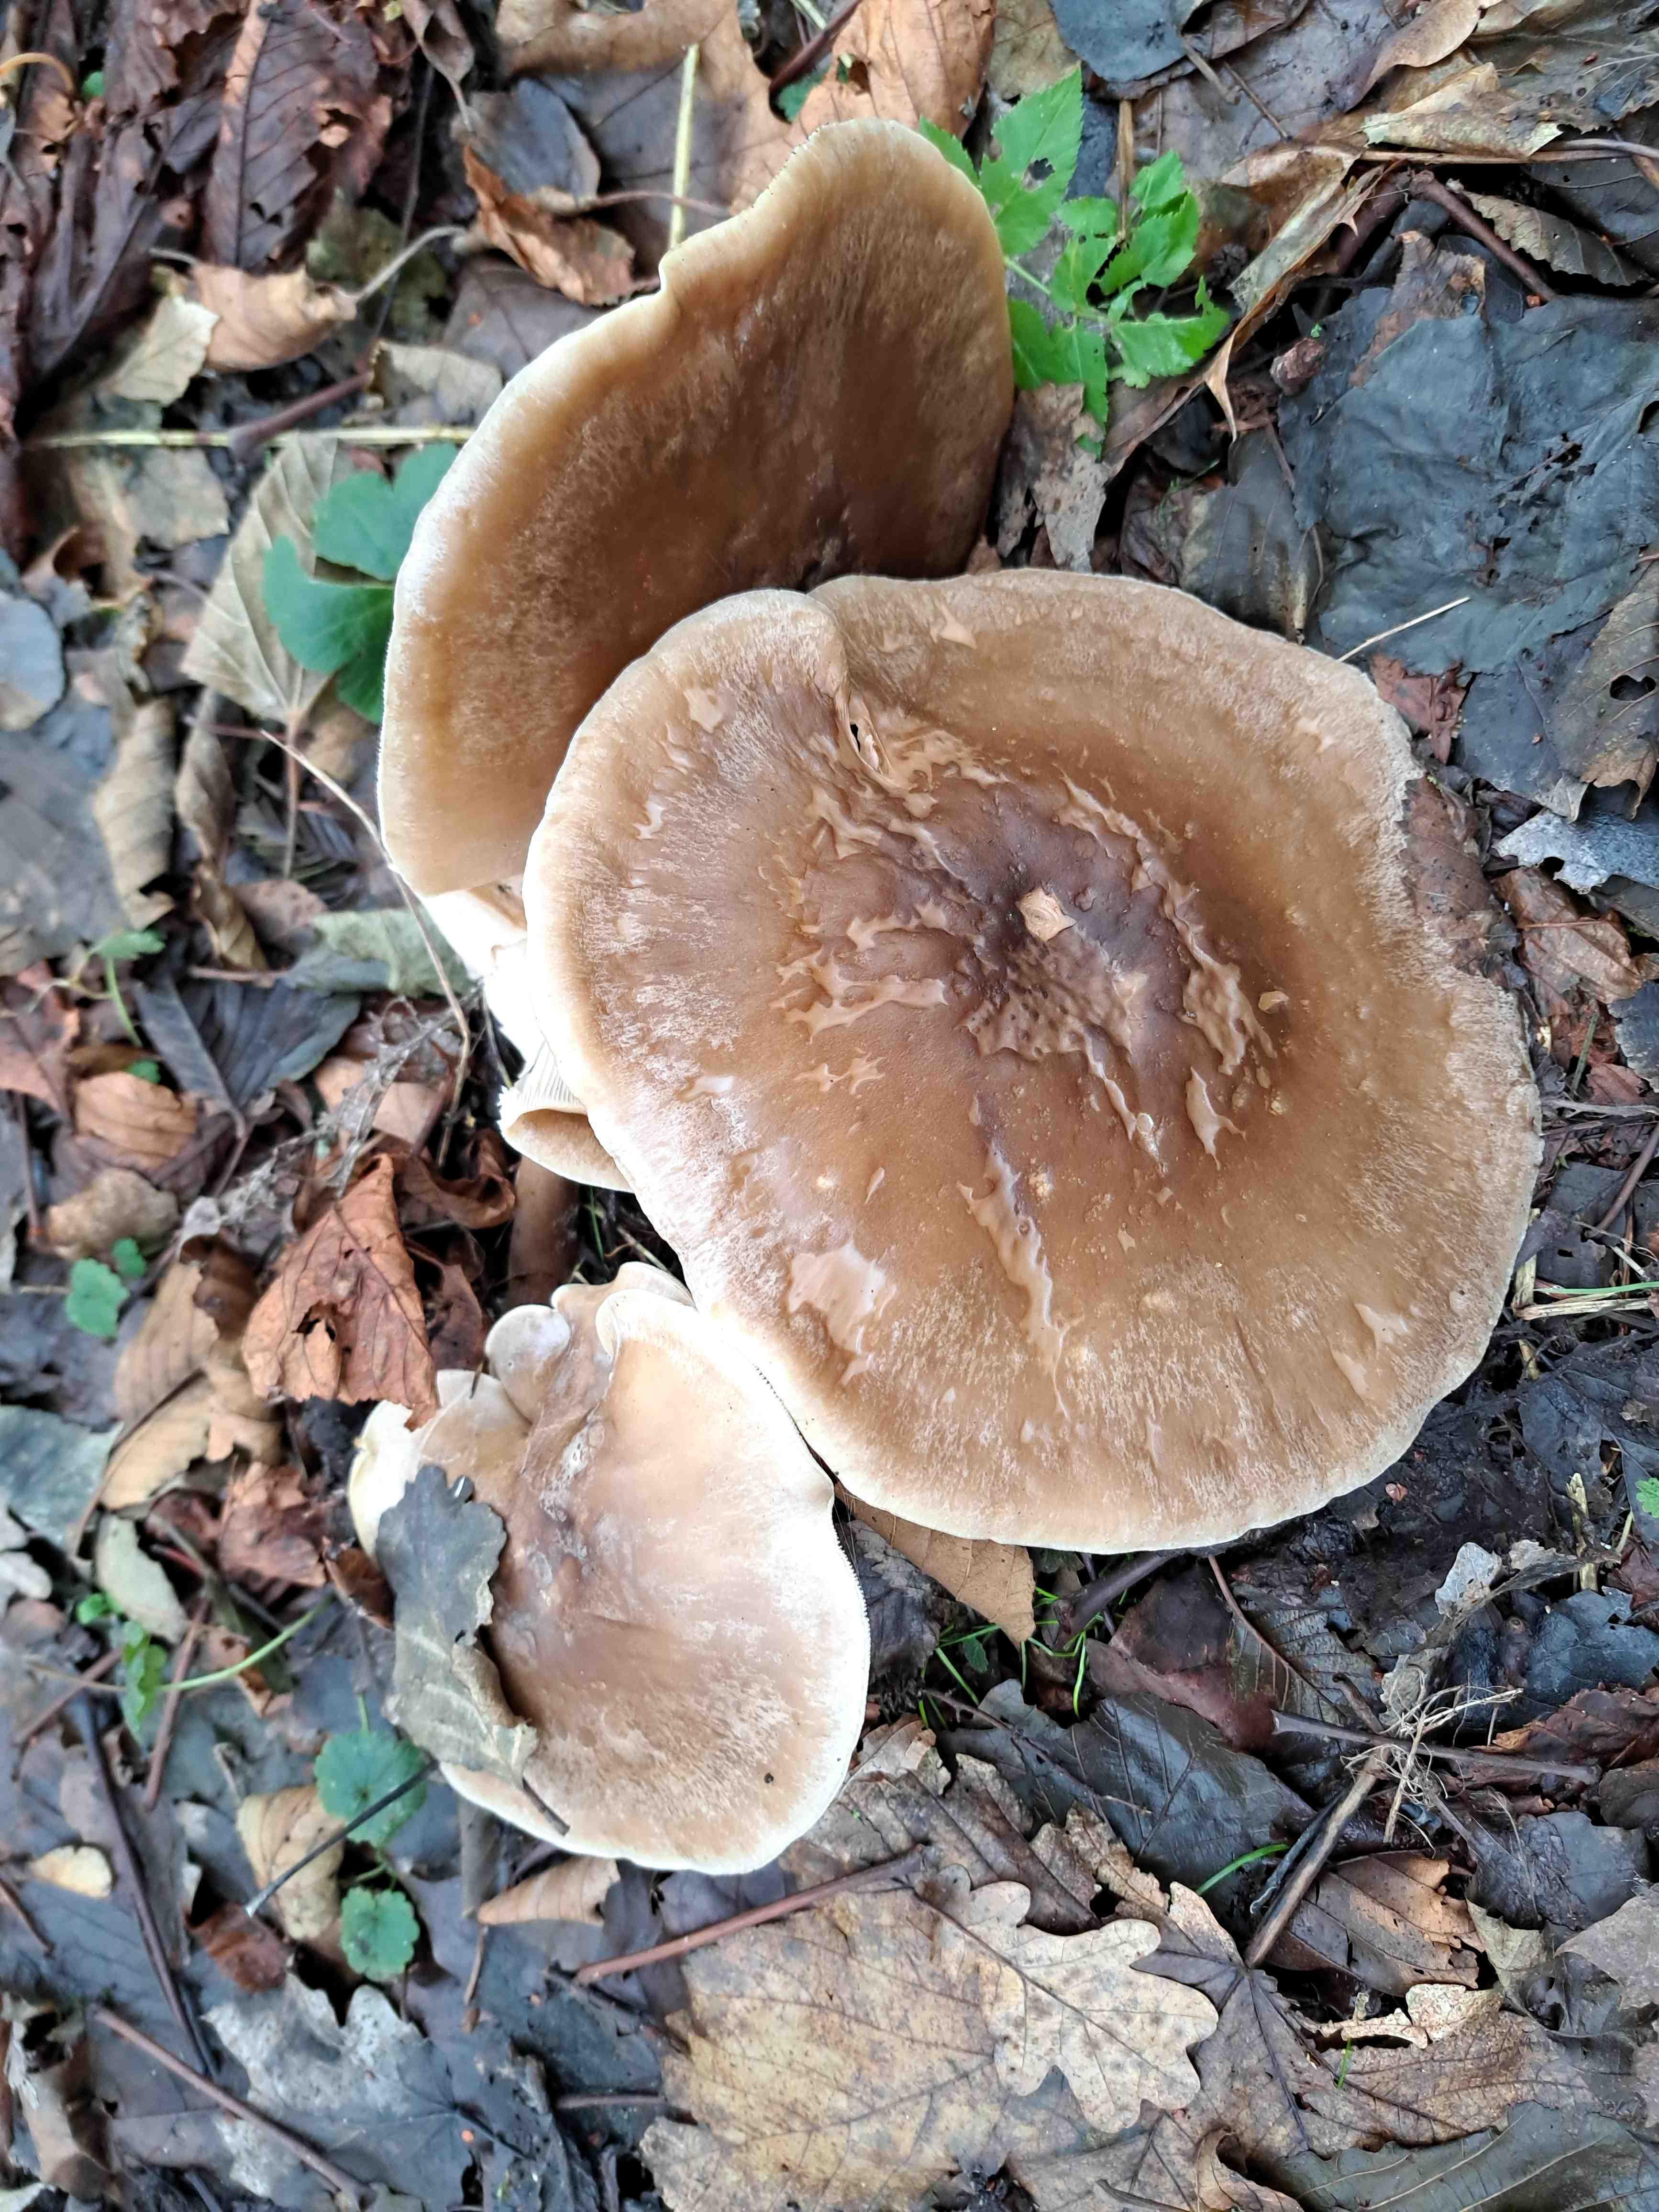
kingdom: Fungi
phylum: Basidiomycota
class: Agaricomycetes
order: Agaricales
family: Tricholomataceae
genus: Clitocybe
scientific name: Clitocybe nebularis
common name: tåge-tragthat
